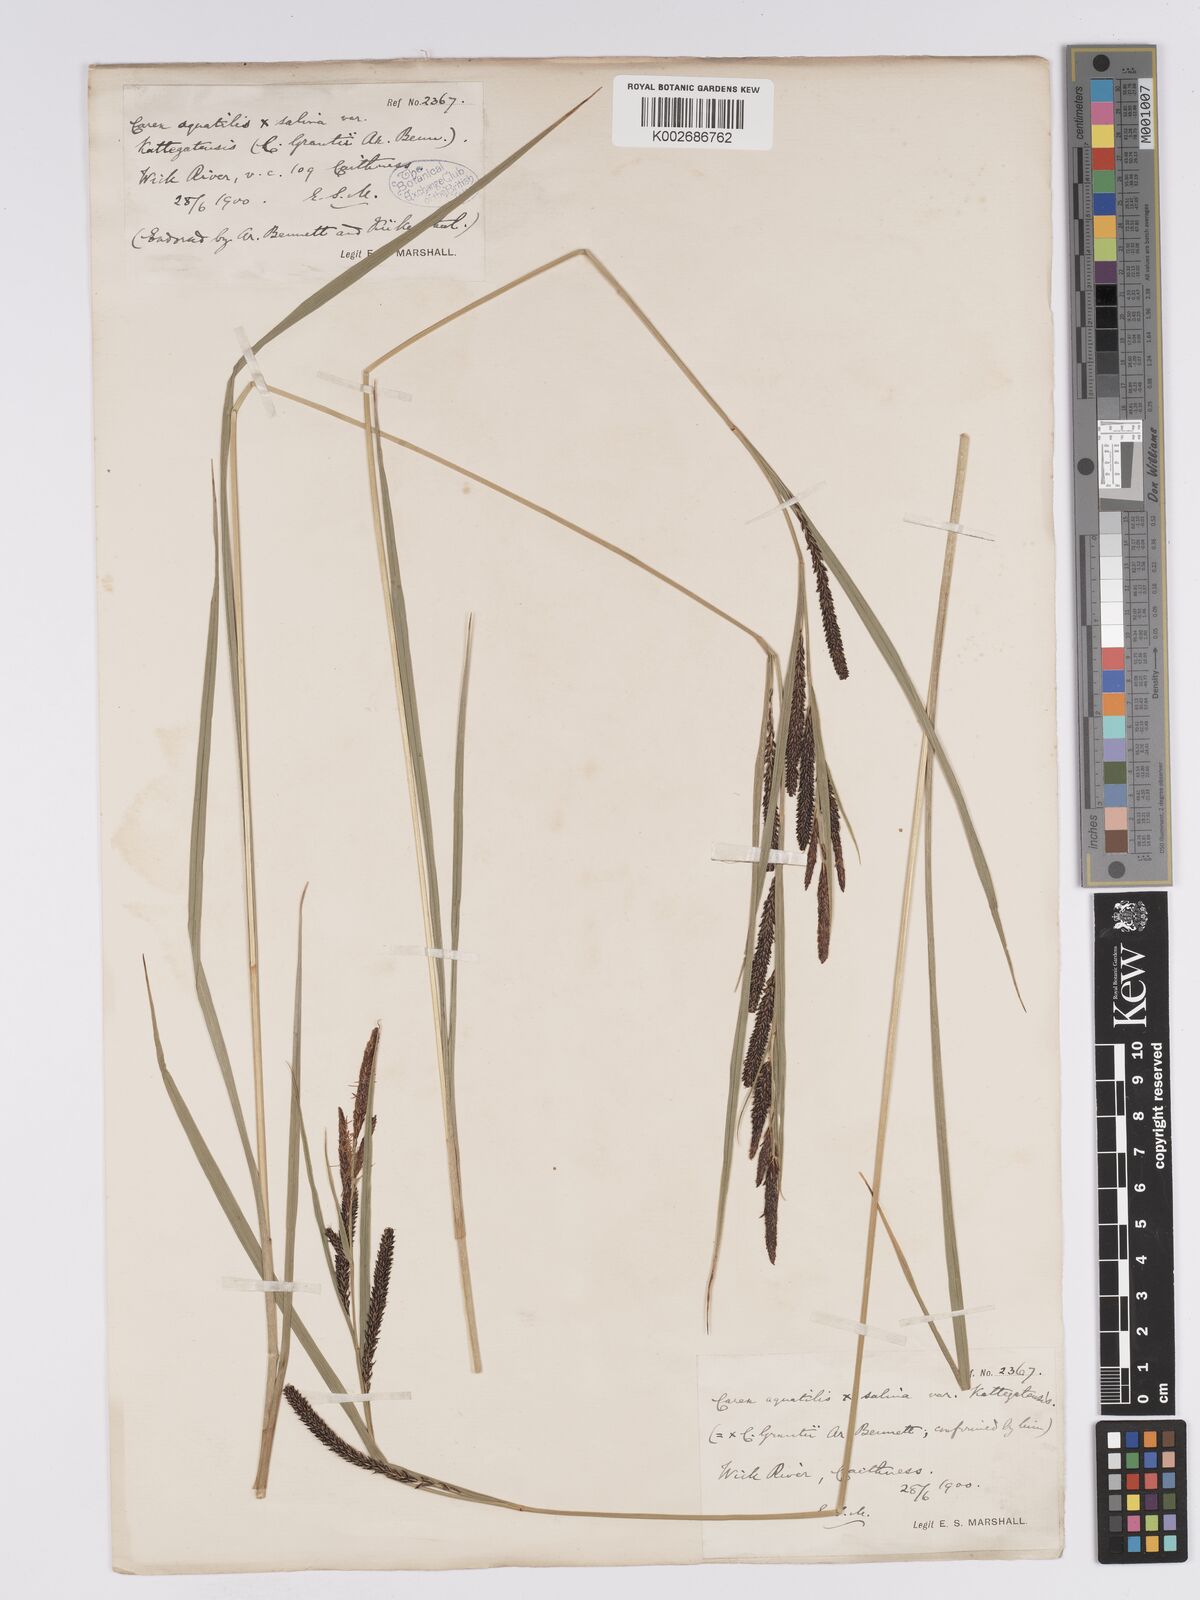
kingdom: Plantae
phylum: Tracheophyta
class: Liliopsida
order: Poales
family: Cyperaceae
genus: Carex
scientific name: Carex grantii
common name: Grant's sedge
